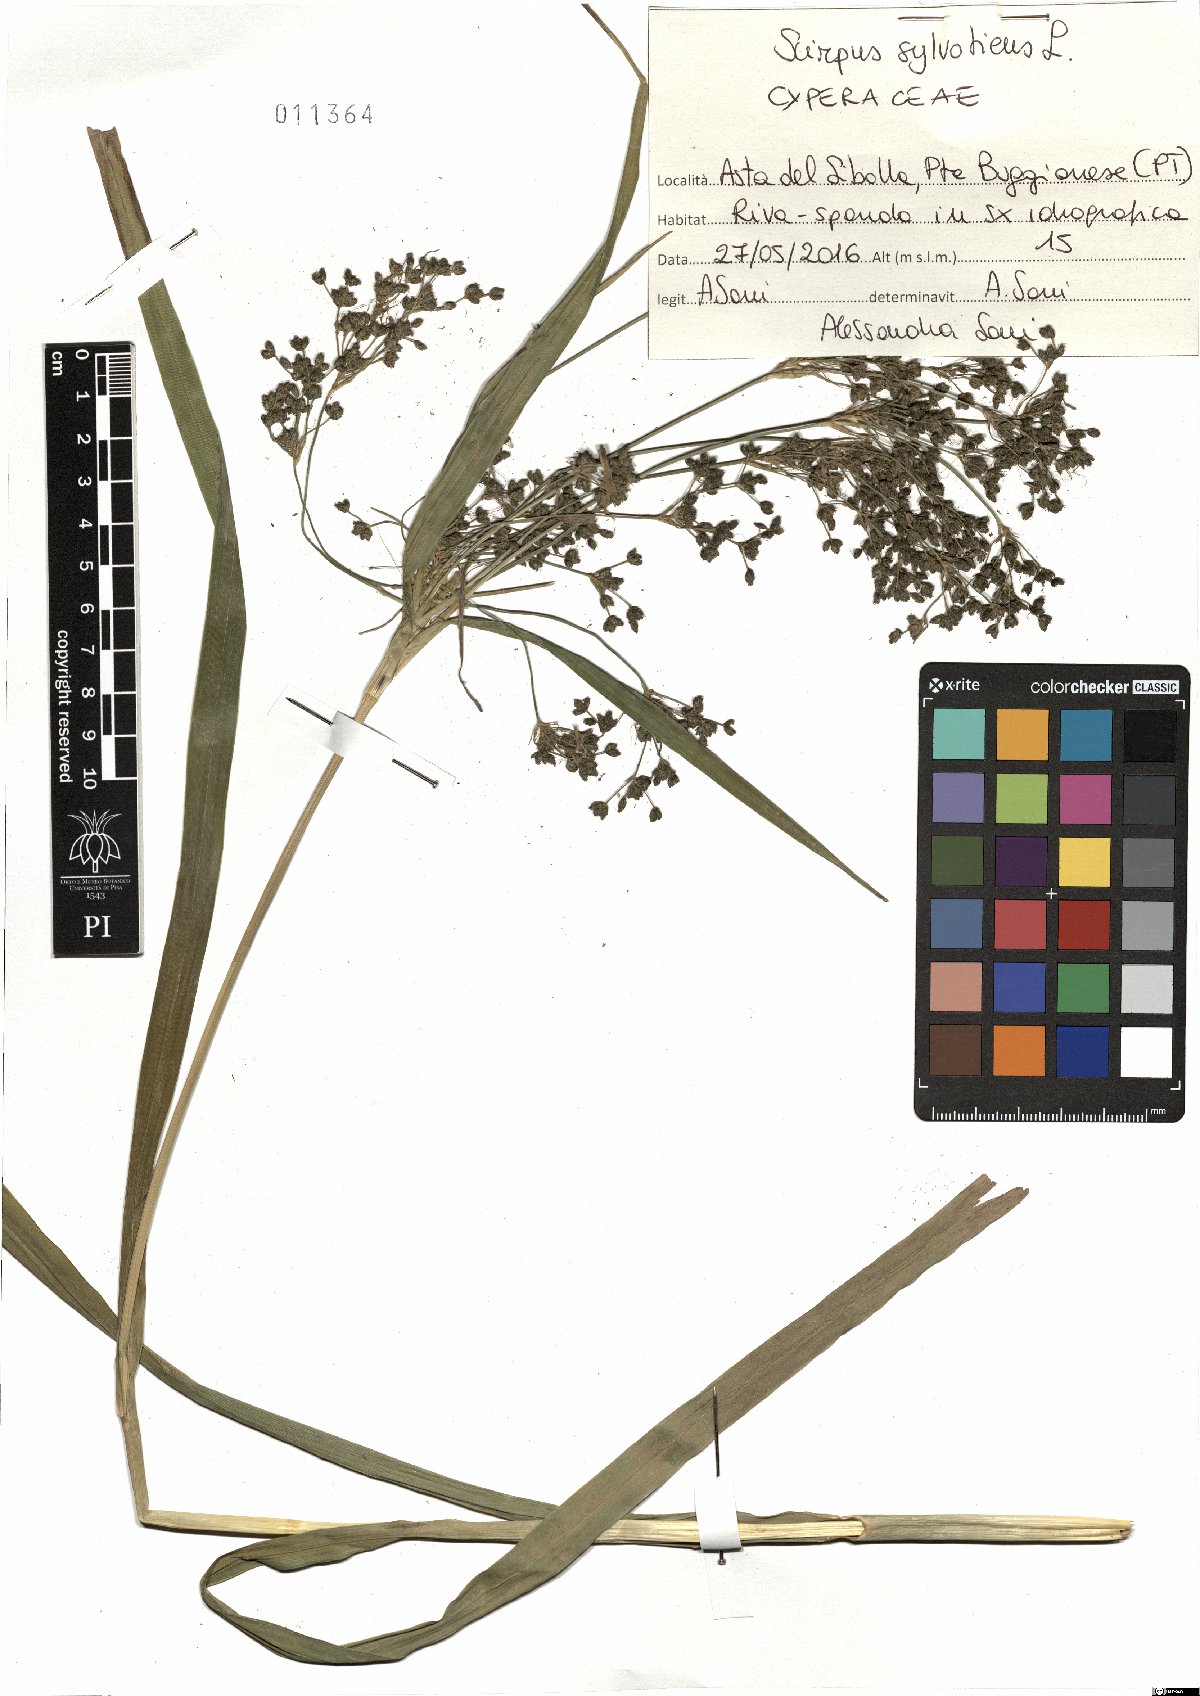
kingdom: Plantae
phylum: Tracheophyta
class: Liliopsida
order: Poales
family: Cyperaceae
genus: Scirpus
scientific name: Scirpus sylvaticus
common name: Wood club-rush
